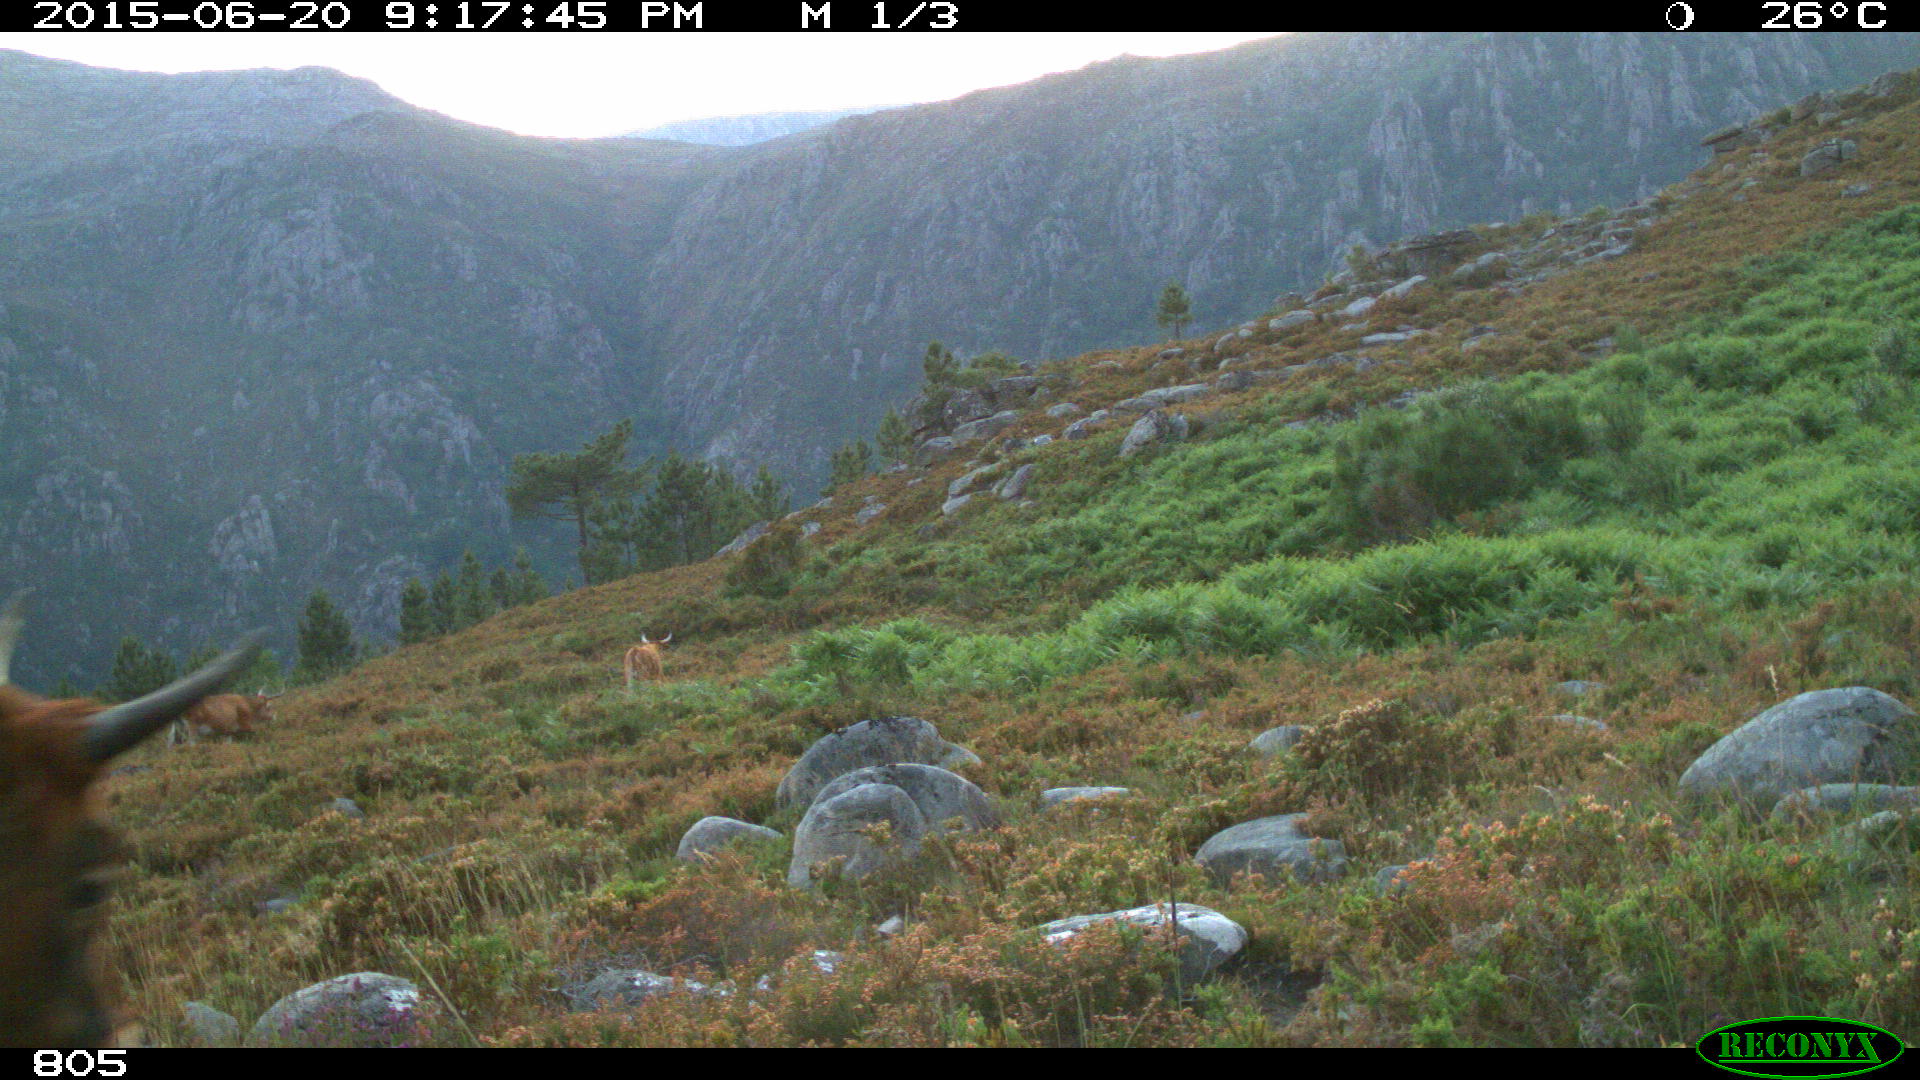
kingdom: Animalia
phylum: Chordata
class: Mammalia
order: Artiodactyla
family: Bovidae
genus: Bos
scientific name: Bos taurus
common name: Domesticated cattle
